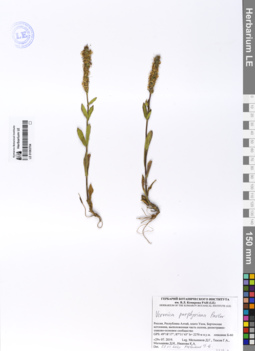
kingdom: Plantae
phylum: Tracheophyta
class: Magnoliopsida
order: Lamiales
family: Plantaginaceae
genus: Veronica
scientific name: Veronica porphyriana
